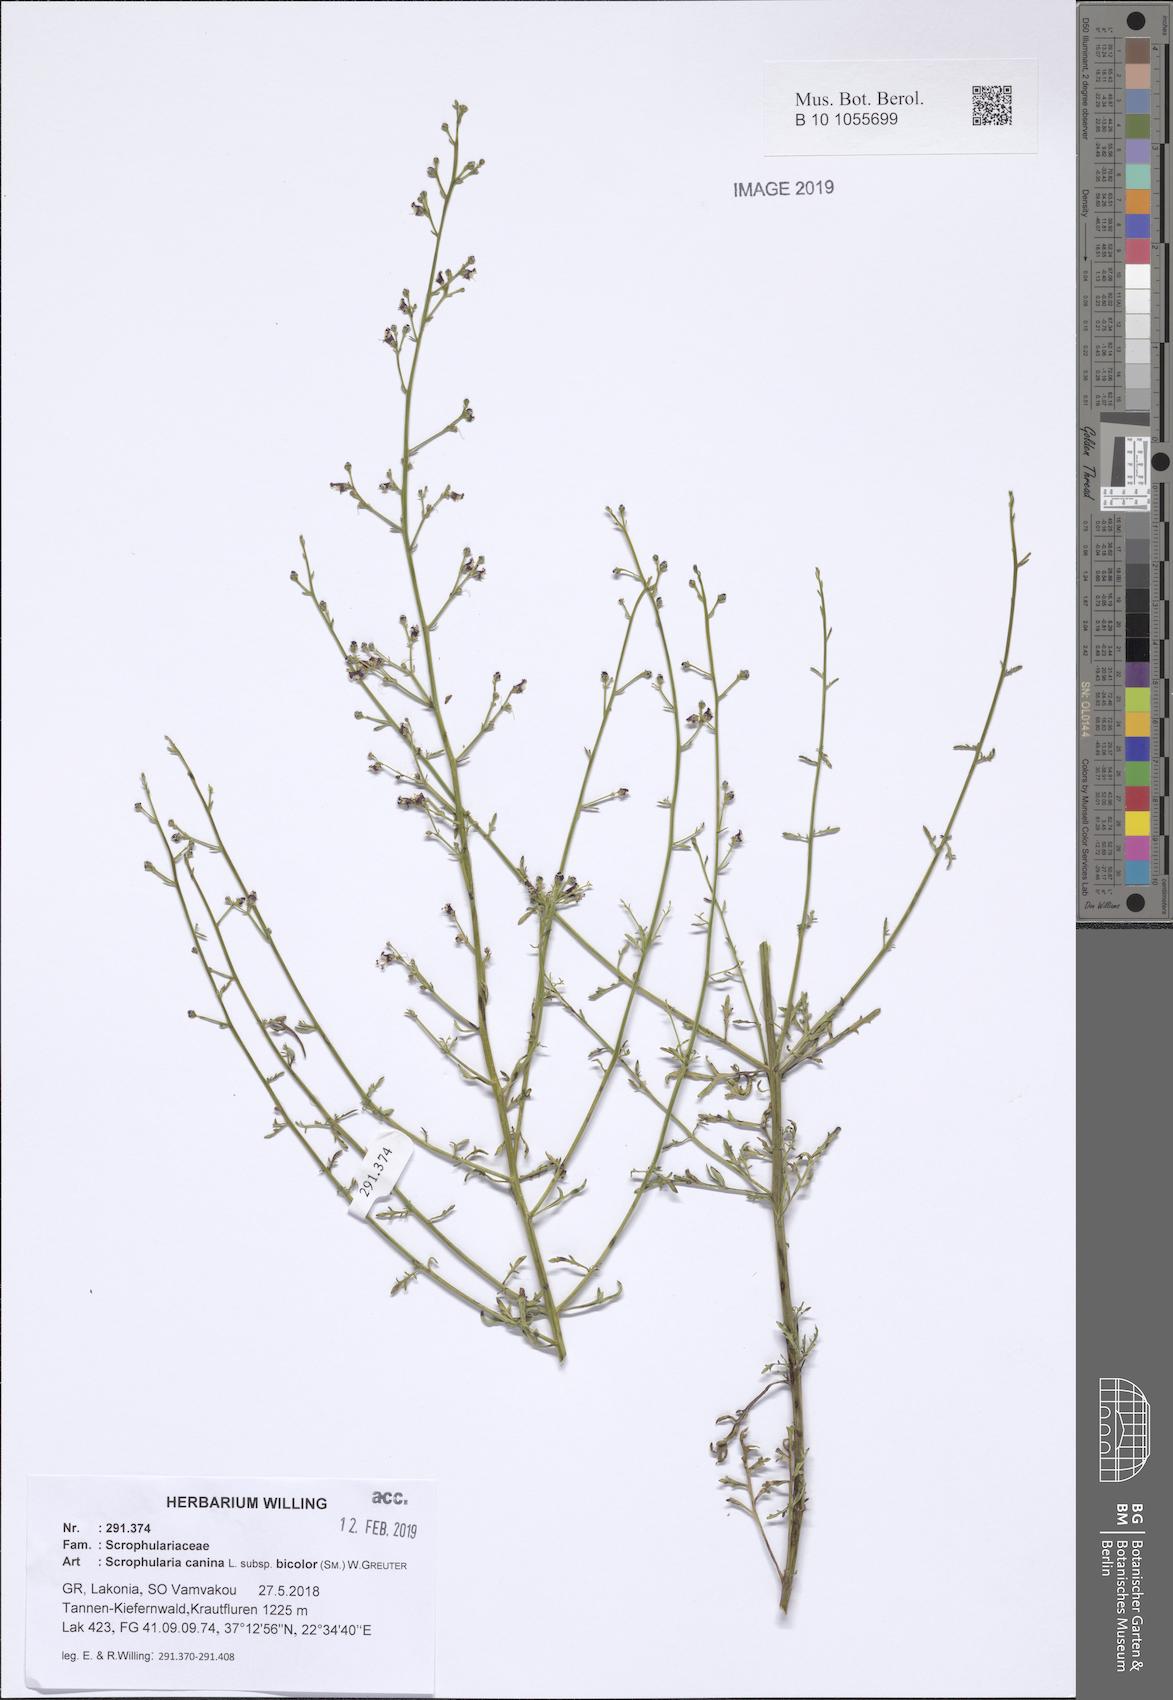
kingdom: Plantae
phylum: Tracheophyta
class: Magnoliopsida
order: Lamiales
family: Scrophulariaceae
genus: Scrophularia
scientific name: Scrophularia canina
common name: French figwort
